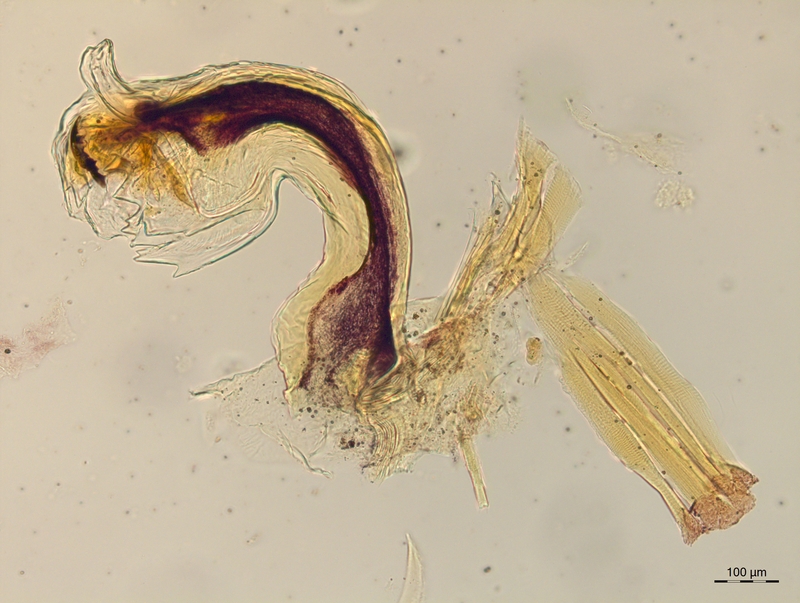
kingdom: Animalia
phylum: Arthropoda
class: Diplopoda
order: Chordeumatida
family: Craspedosomatidae
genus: Craspedosoma
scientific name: Craspedosoma taurinorum
